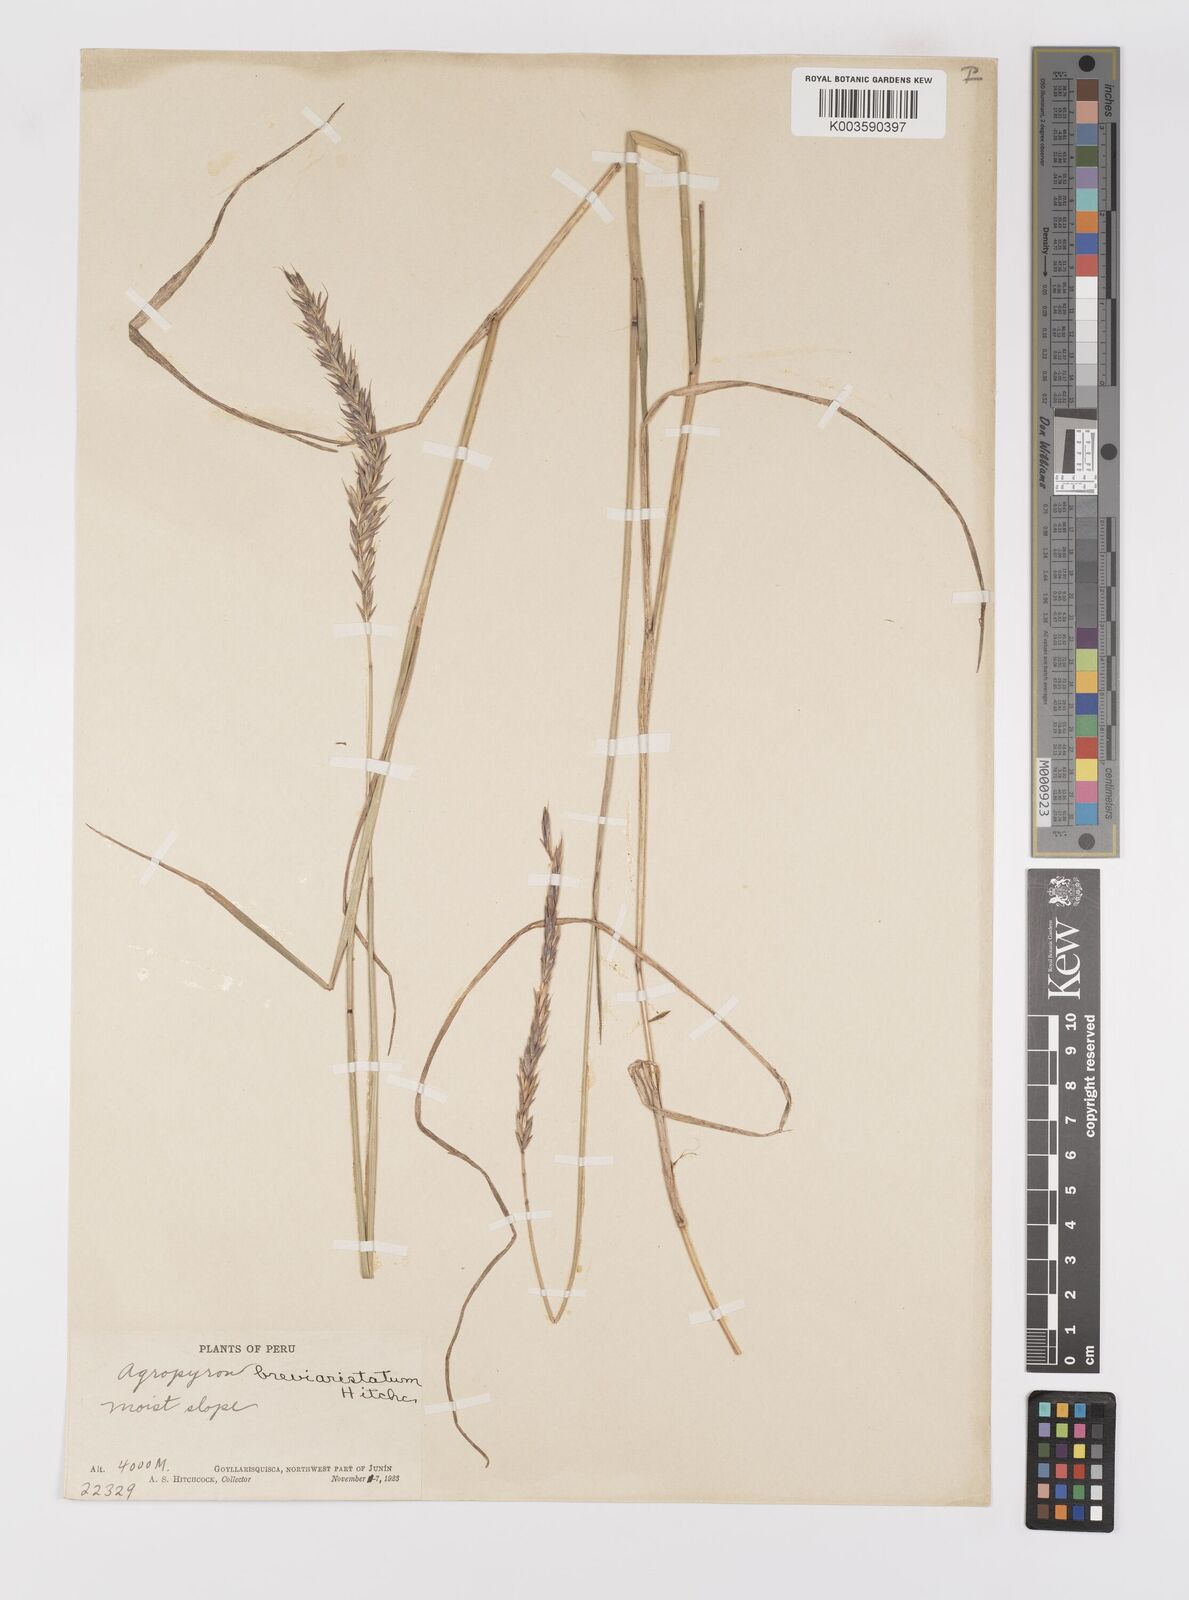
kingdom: Plantae
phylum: Tracheophyta
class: Liliopsida
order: Poales
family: Poaceae
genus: Elymus
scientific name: Elymus angulatus
